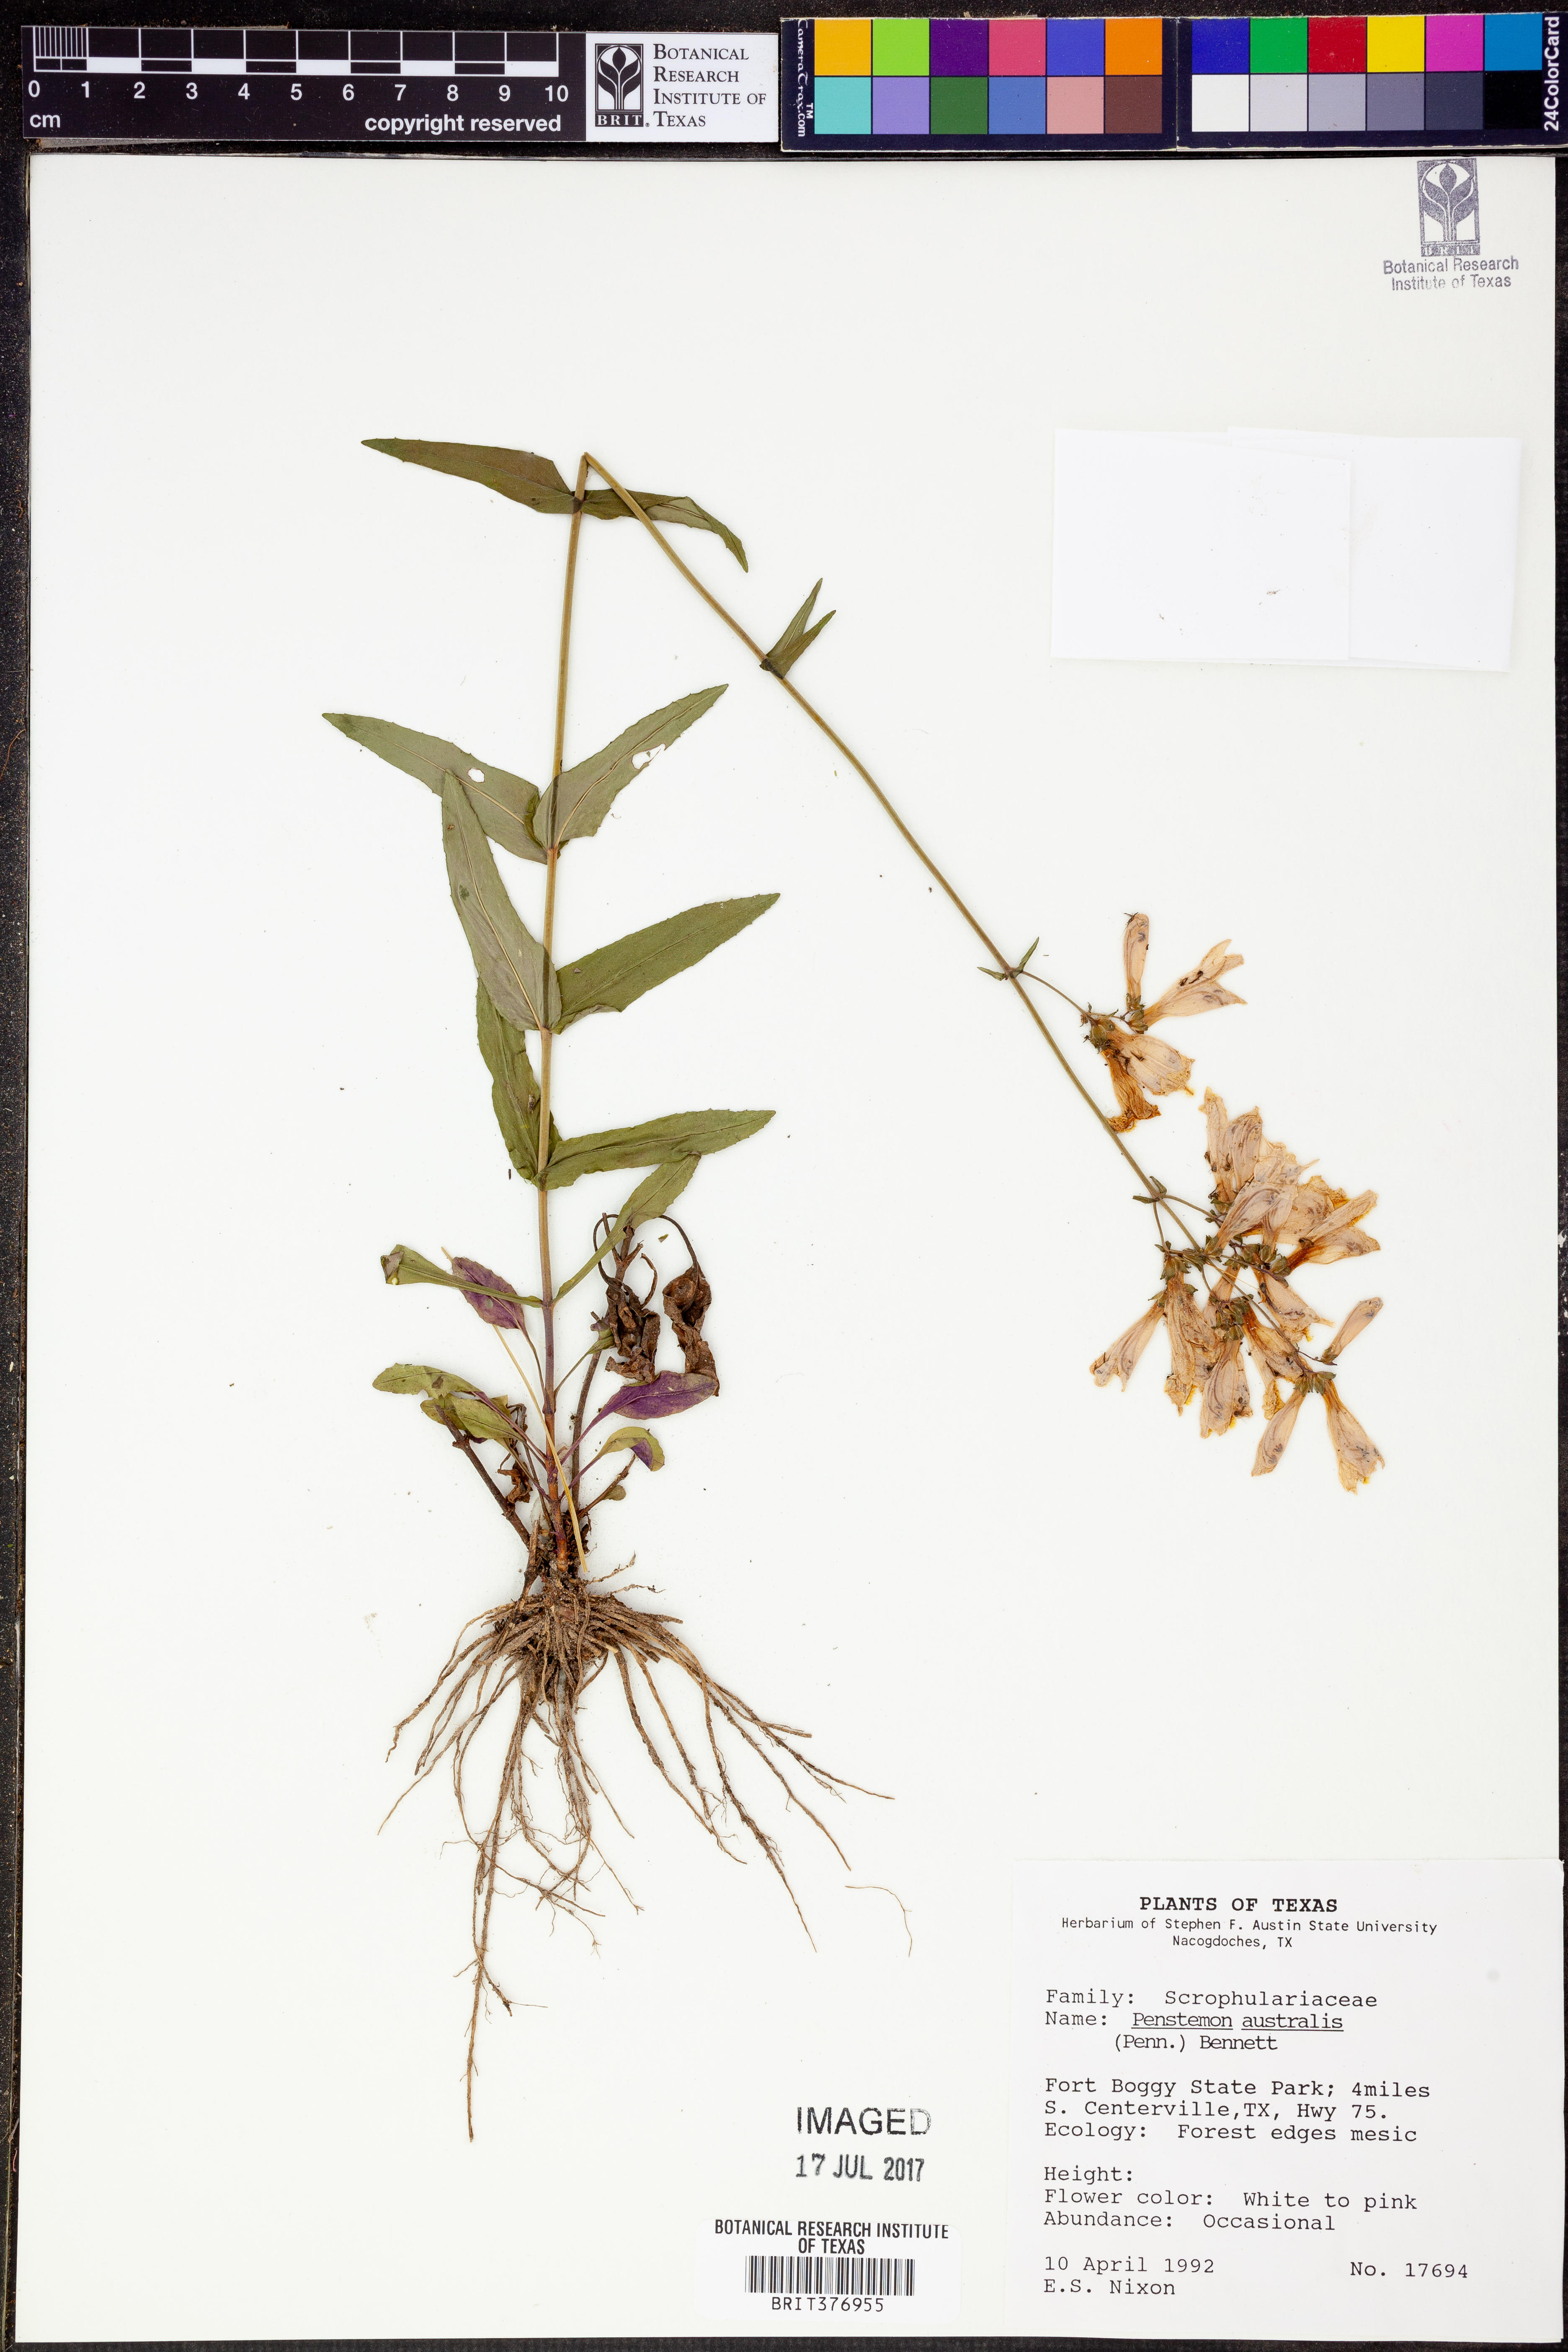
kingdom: Plantae
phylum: Tracheophyta
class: Magnoliopsida
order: Lamiales
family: Plantaginaceae
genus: Penstemon
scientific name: Penstemon australis
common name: Southeastern beardtongue
